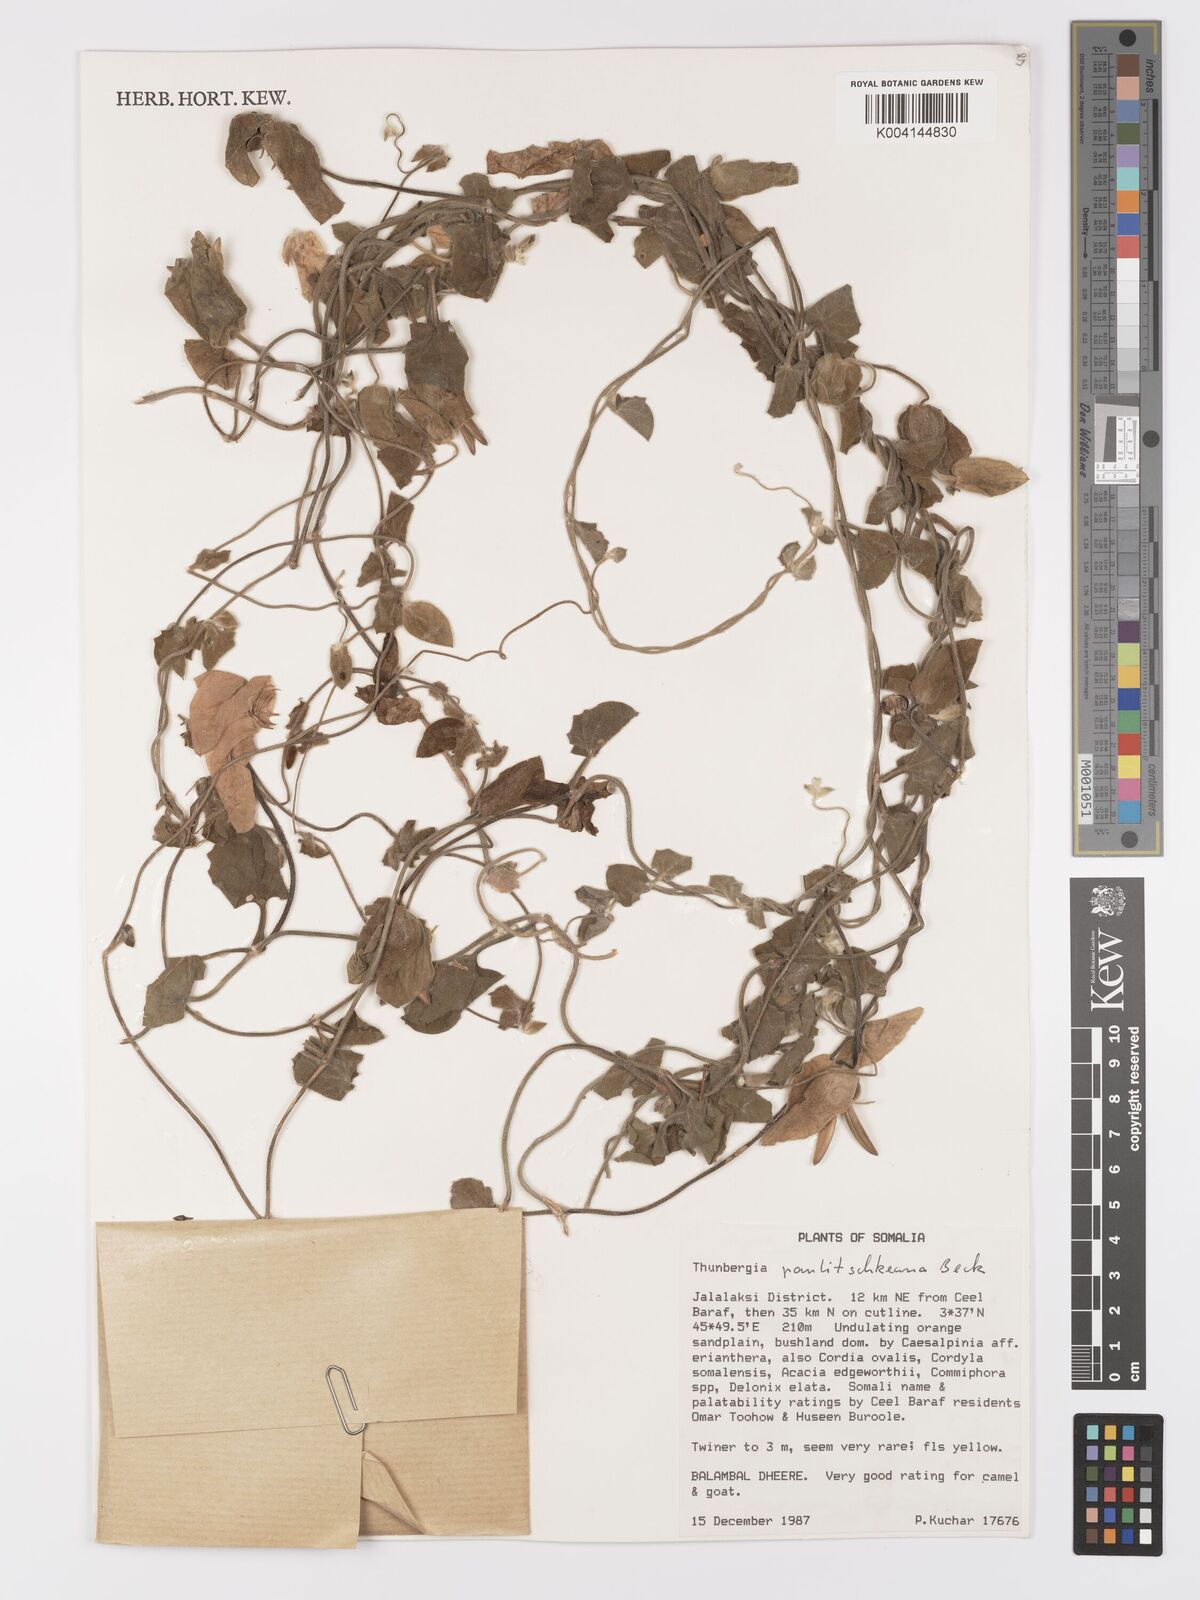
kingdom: Plantae
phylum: Tracheophyta
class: Magnoliopsida
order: Lamiales
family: Acanthaceae
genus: Thunbergia
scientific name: Thunbergia alata
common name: Blackeyed susan vine
